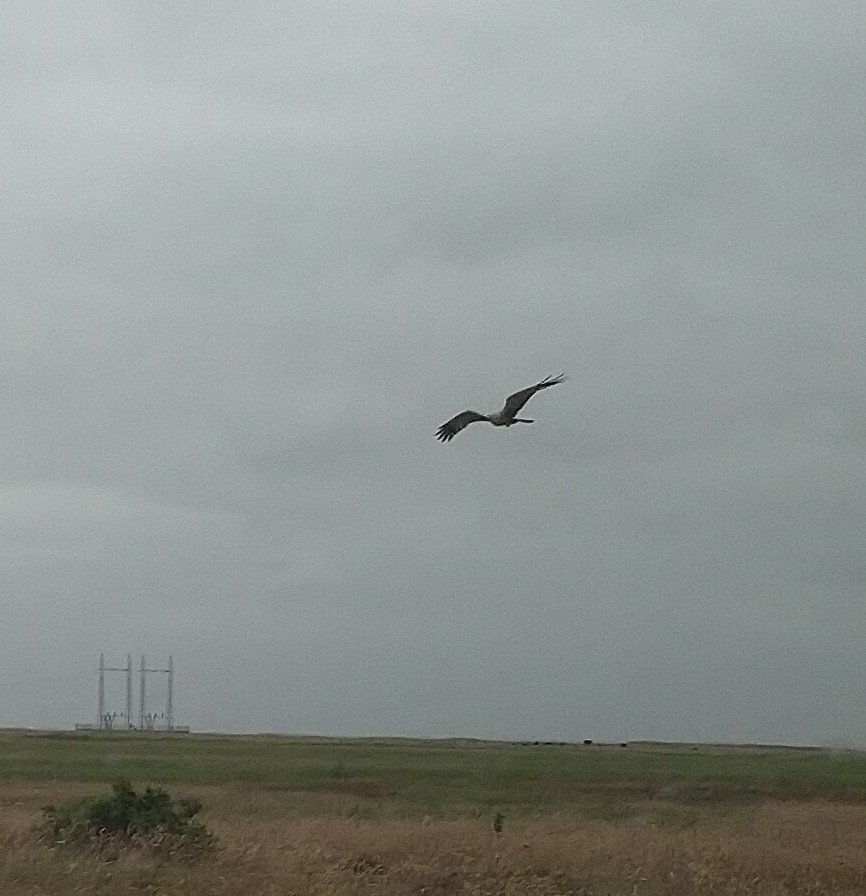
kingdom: Animalia
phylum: Chordata
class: Aves
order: Accipitriformes
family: Accipitridae
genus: Circus
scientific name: Circus aeruginosus
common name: Rørhøg
